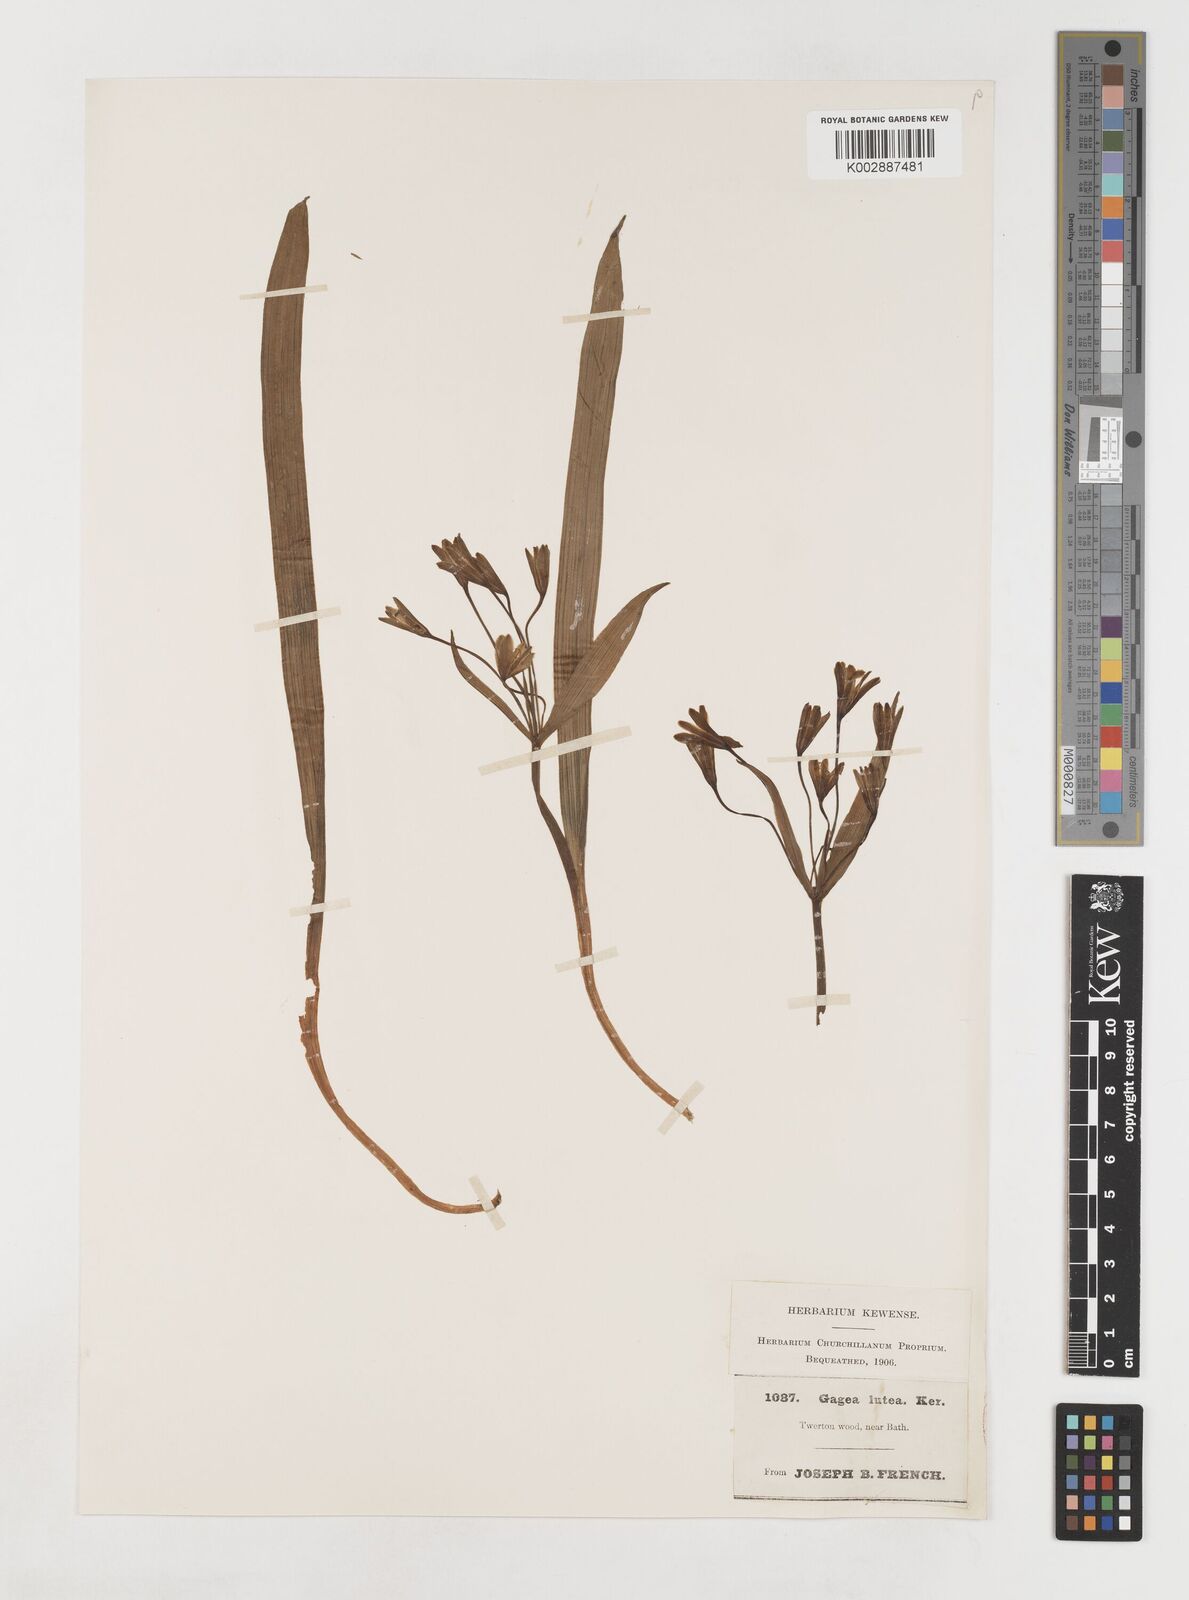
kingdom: Plantae
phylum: Tracheophyta
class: Liliopsida
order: Liliales
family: Liliaceae
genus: Gagea
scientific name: Gagea lutea
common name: Yellow star-of-bethlehem
